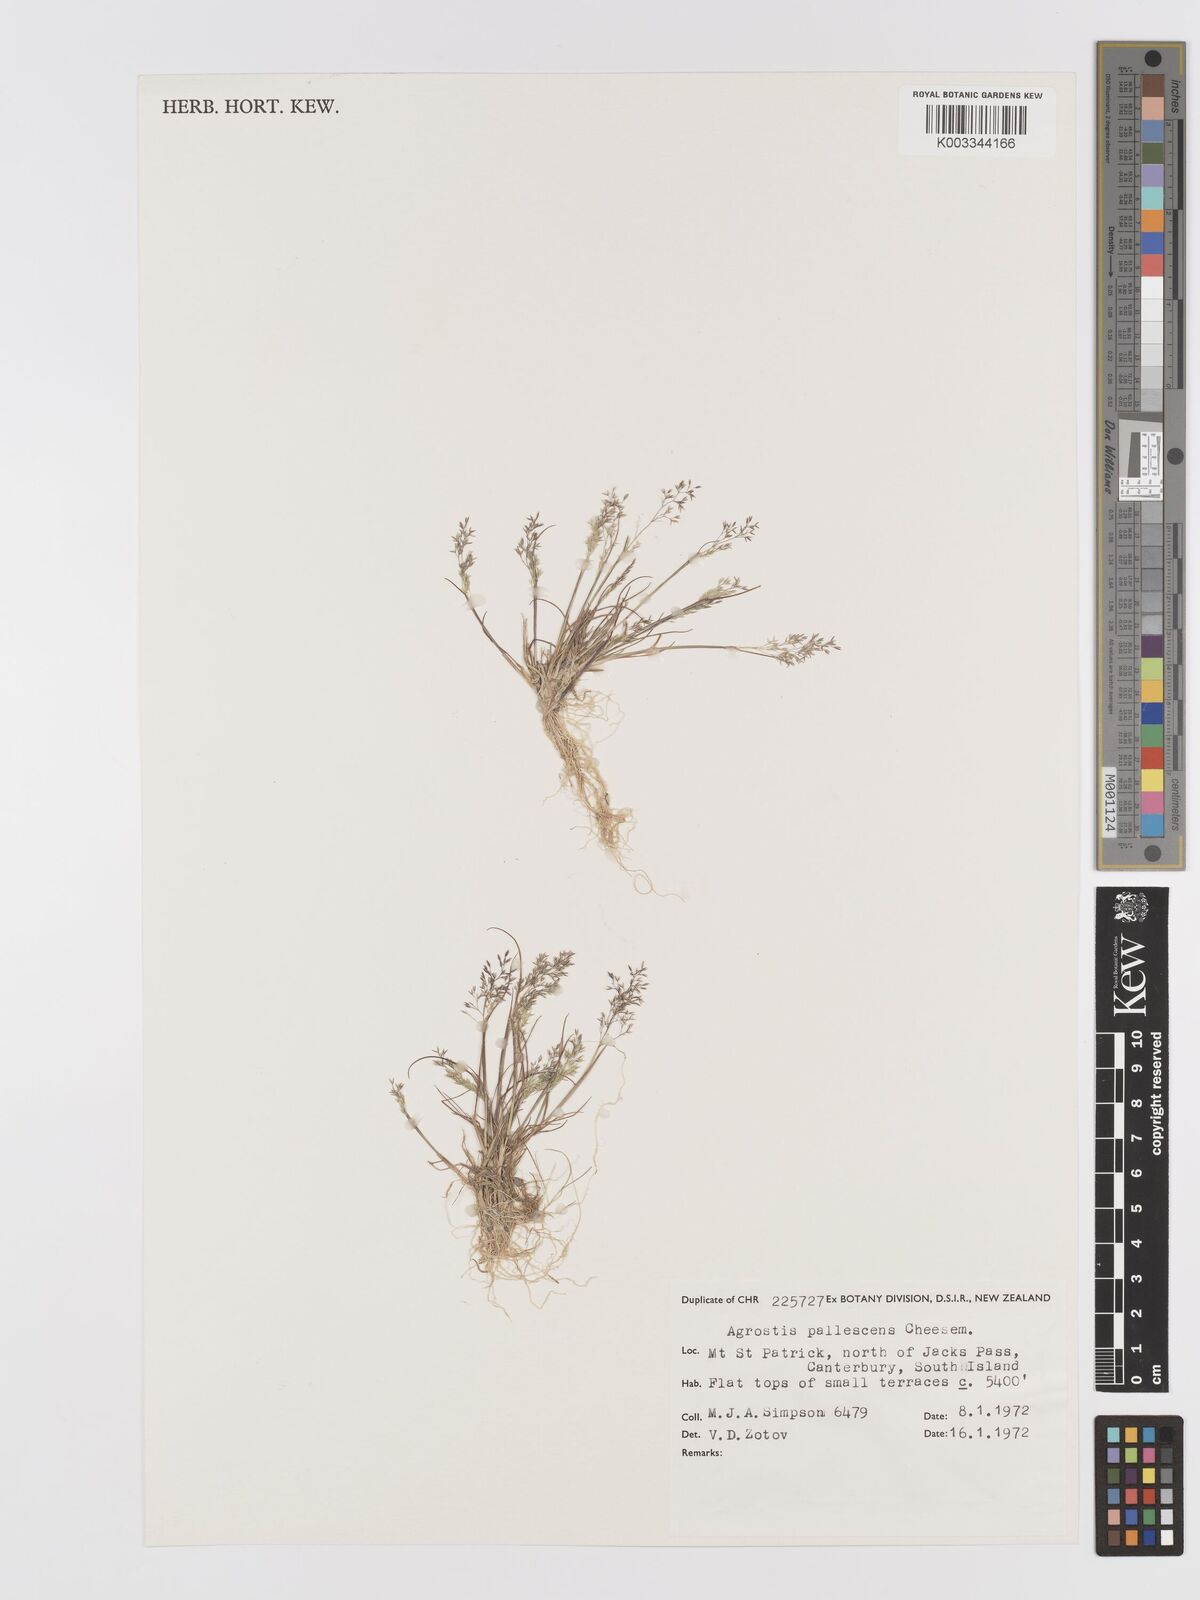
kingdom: Plantae
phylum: Tracheophyta
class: Liliopsida
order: Poales
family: Poaceae
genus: Agrostis
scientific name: Agrostis pallescens
